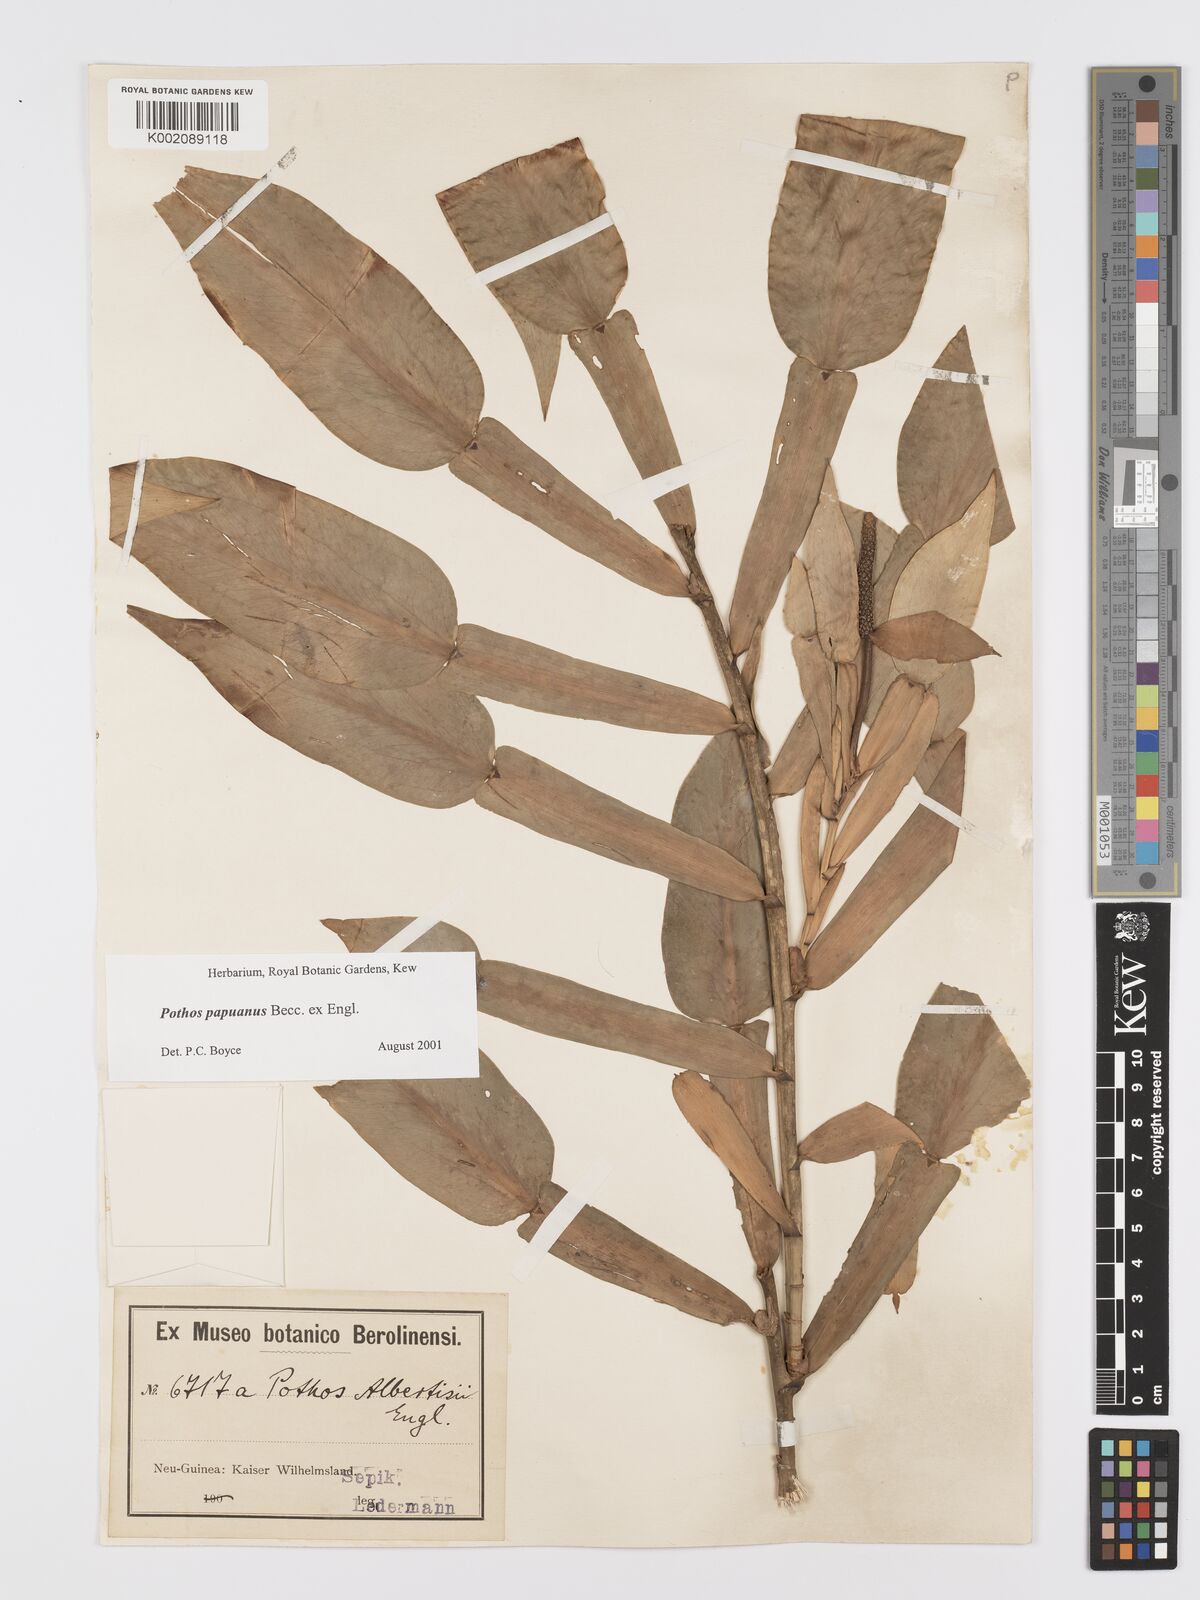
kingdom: Plantae
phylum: Tracheophyta
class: Liliopsida
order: Alismatales
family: Araceae
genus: Pothos
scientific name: Pothos papuanus
